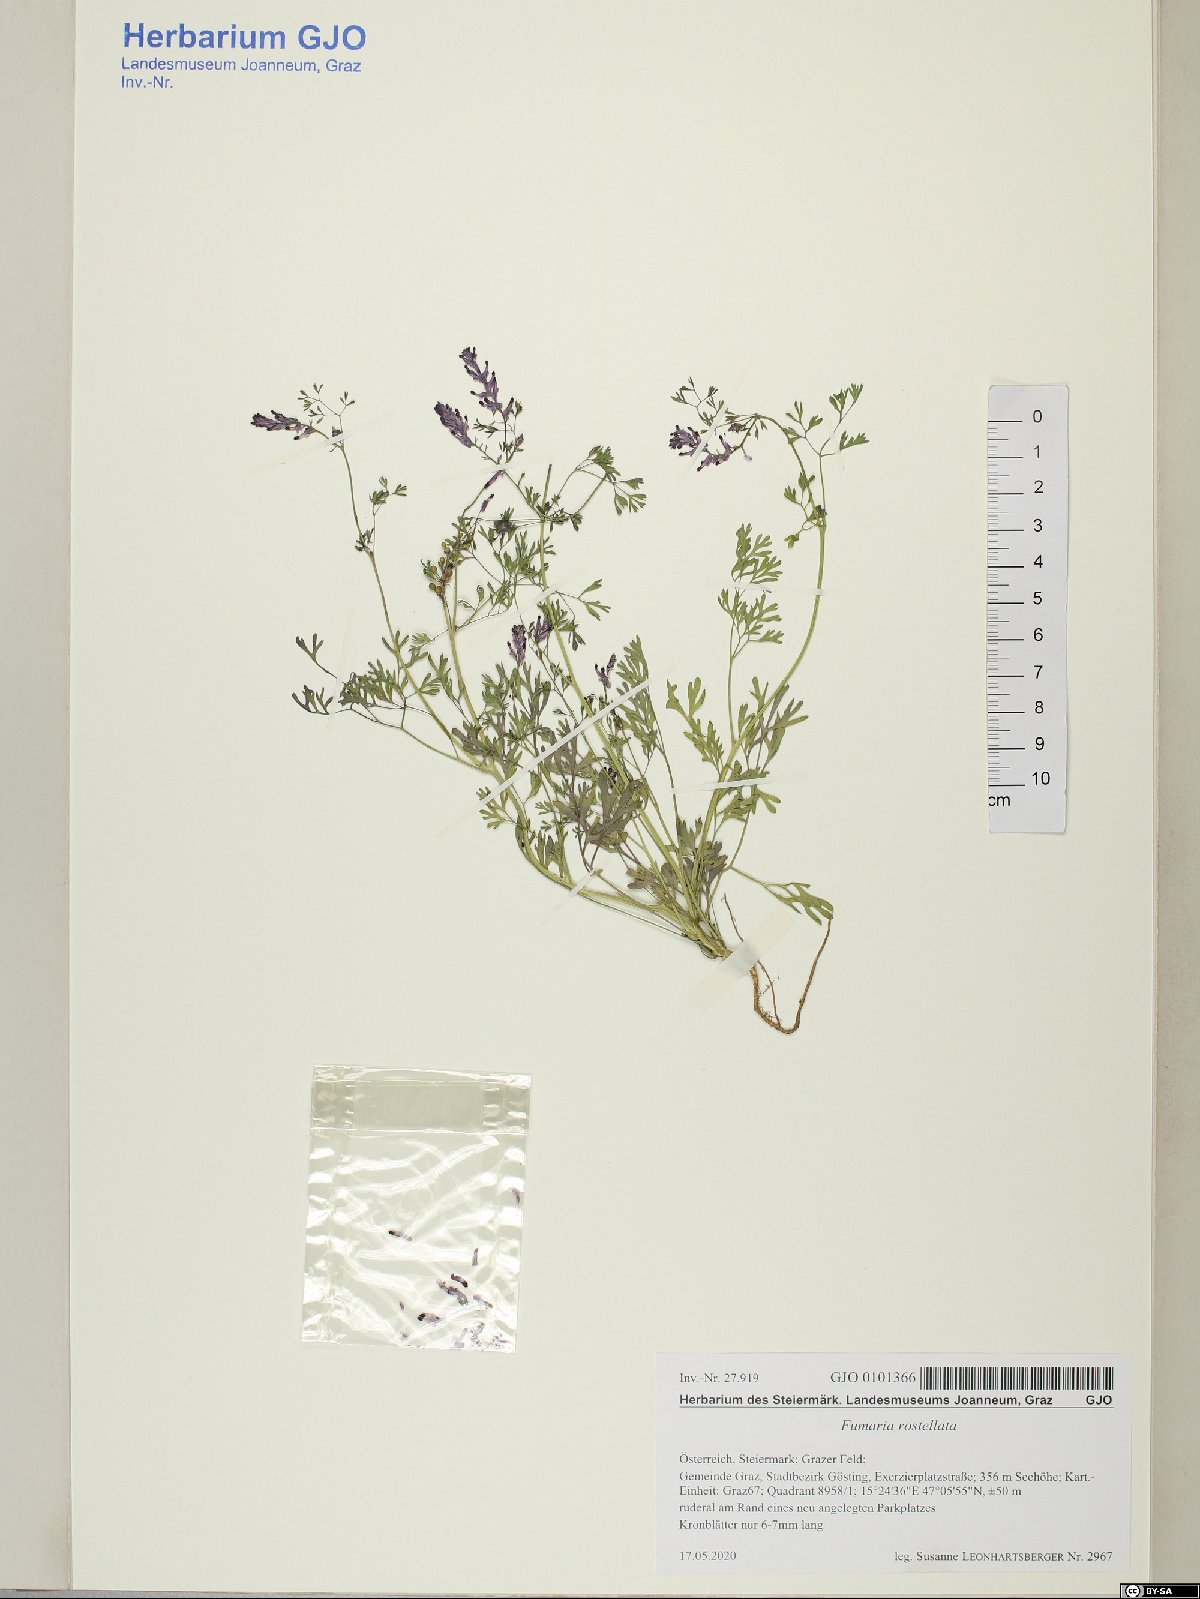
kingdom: Plantae
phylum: Tracheophyta
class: Magnoliopsida
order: Ranunculales
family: Papaveraceae
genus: Fumaria
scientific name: Fumaria rostellata
